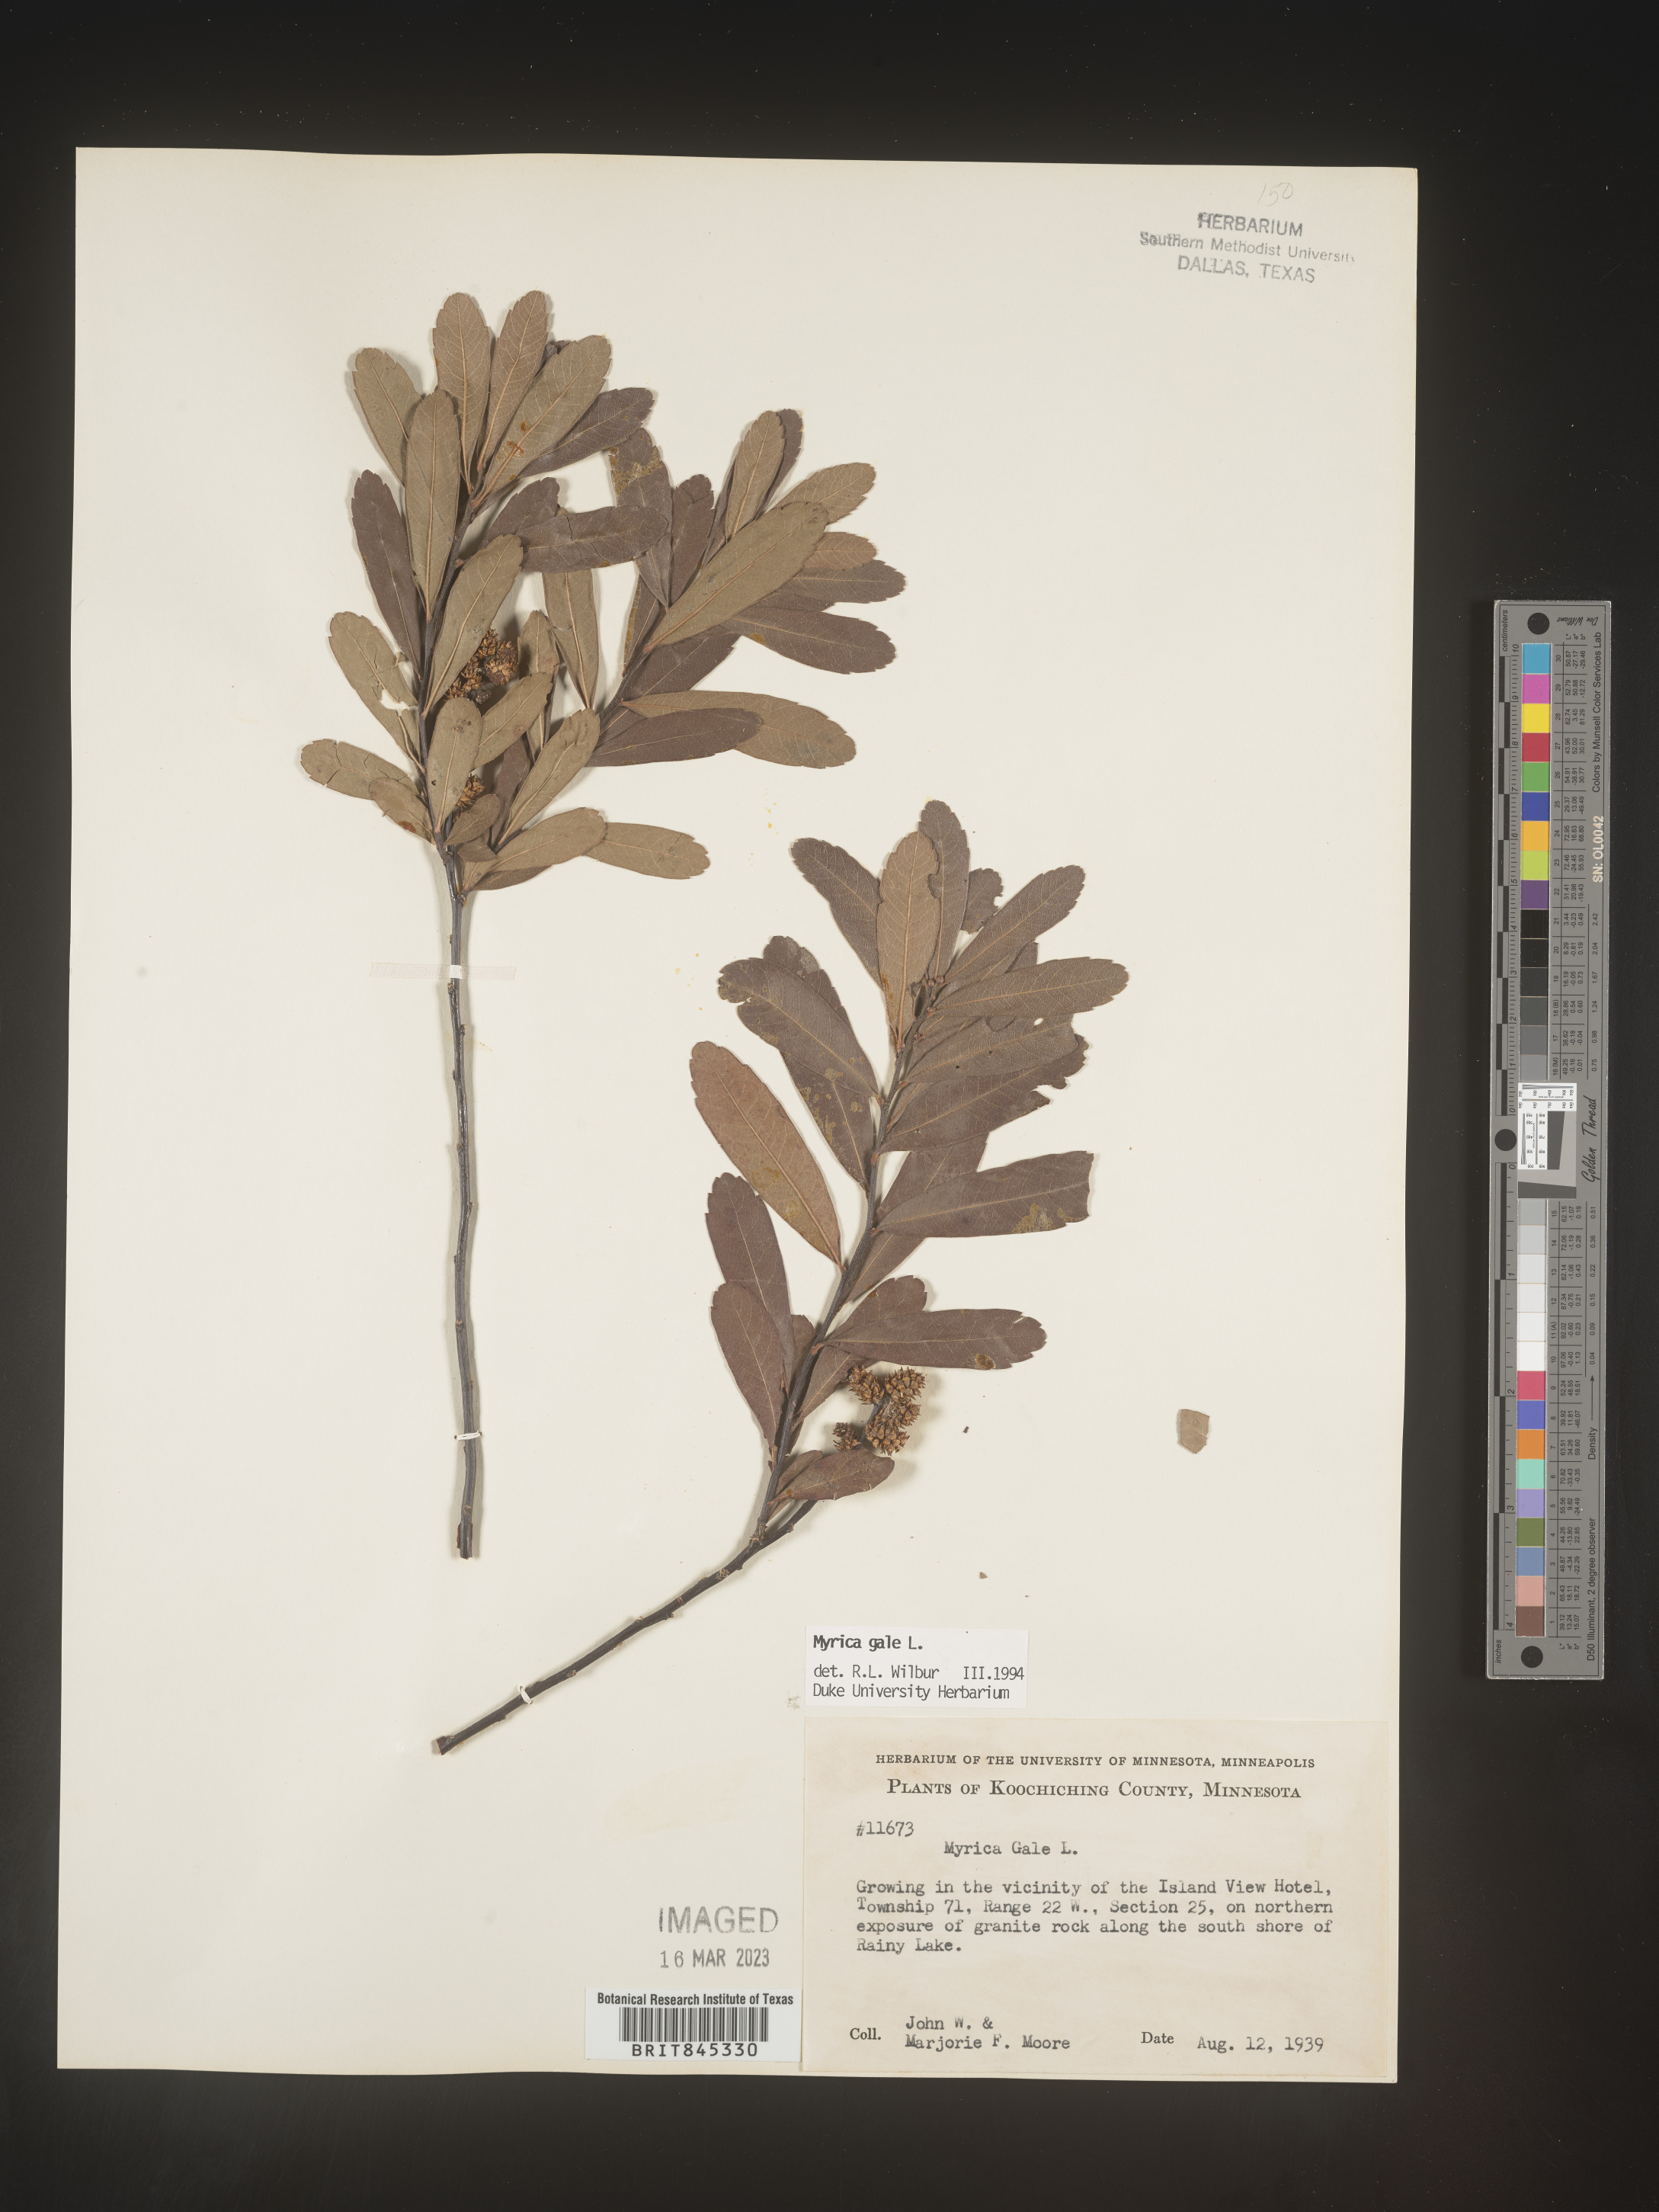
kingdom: Plantae
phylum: Tracheophyta
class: Magnoliopsida
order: Fagales
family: Myricaceae
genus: Myrica
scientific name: Myrica gale
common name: Sweet gale
